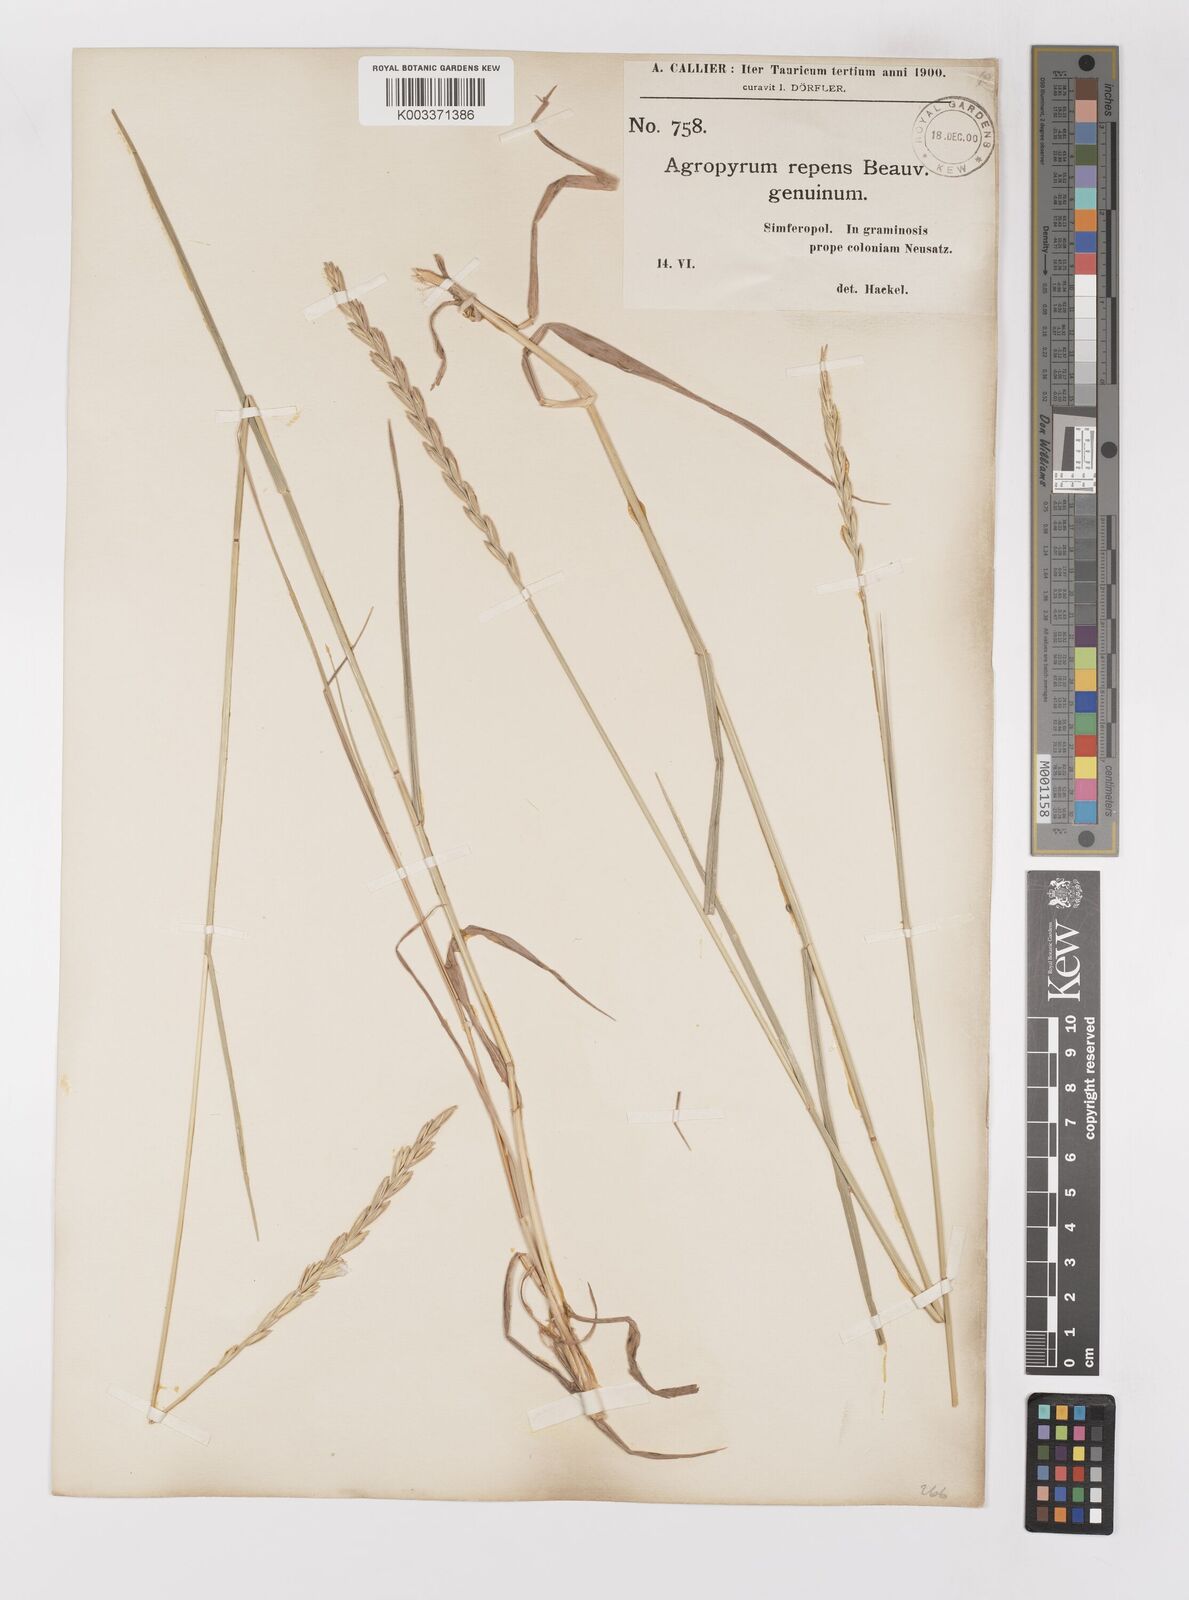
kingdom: Plantae
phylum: Tracheophyta
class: Liliopsida
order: Poales
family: Poaceae
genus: Elymus
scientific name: Elymus repens
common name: Quackgrass
